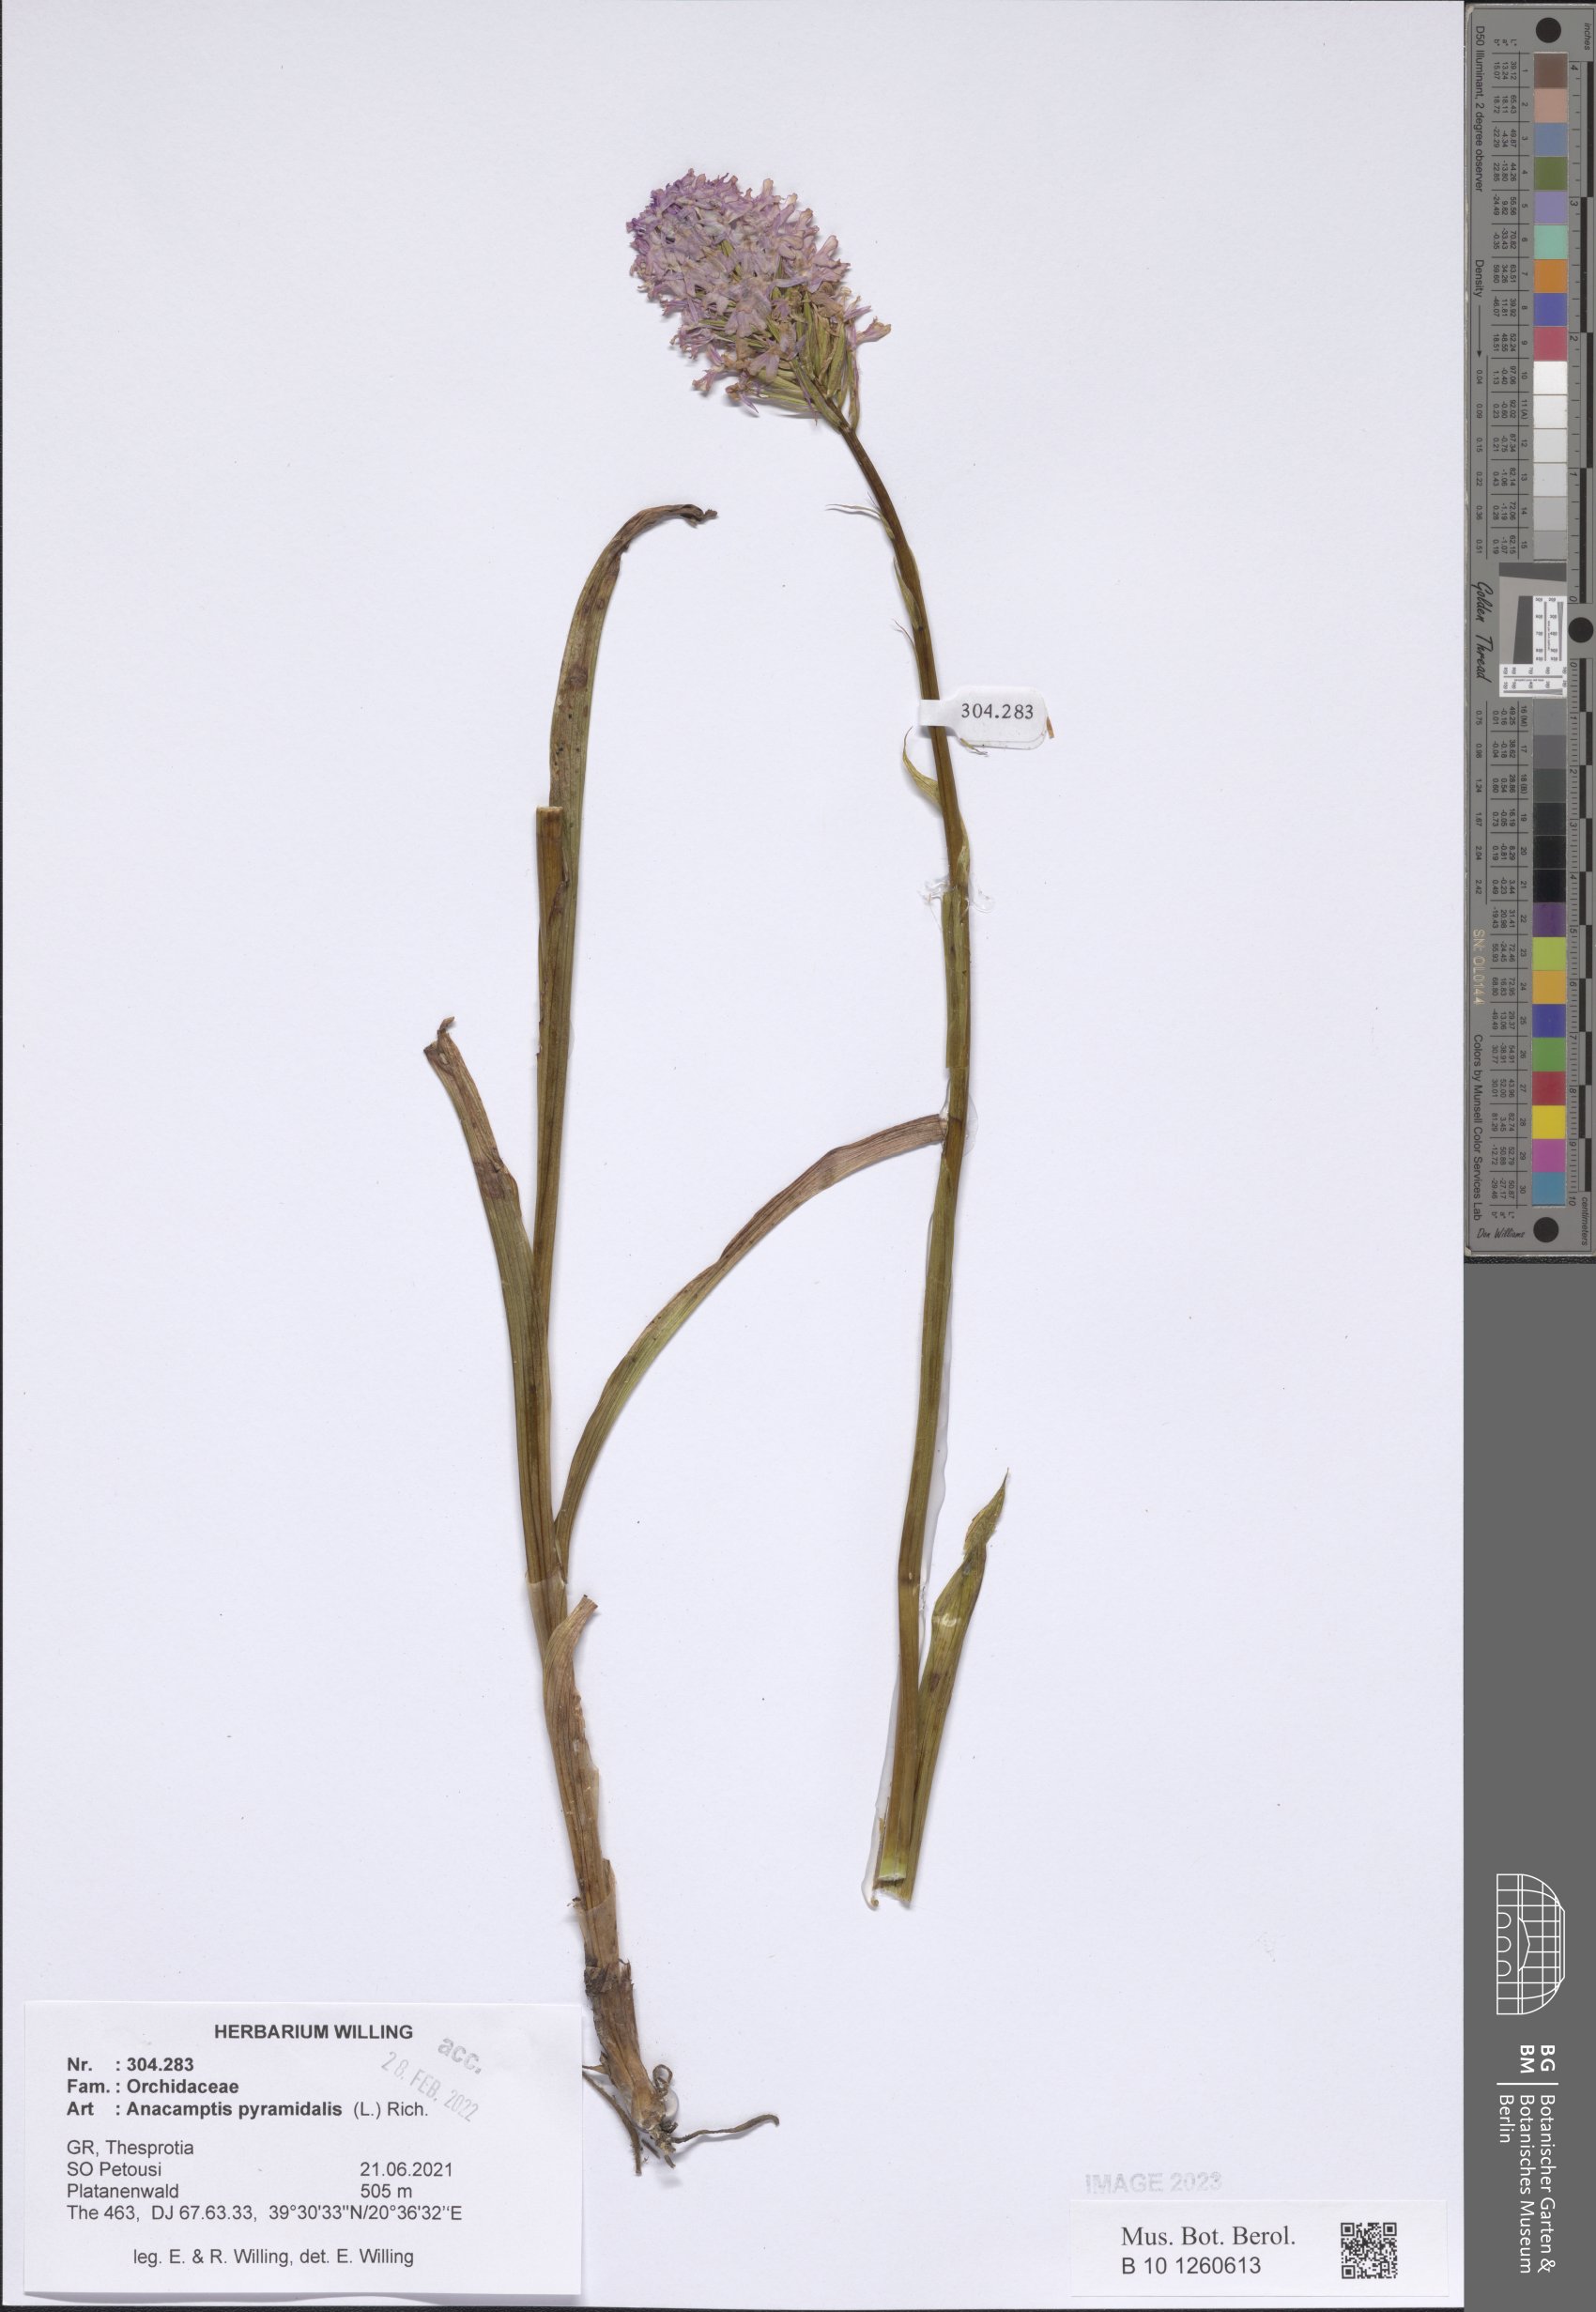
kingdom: Plantae
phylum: Tracheophyta
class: Liliopsida
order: Asparagales
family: Orchidaceae
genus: Anacamptis
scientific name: Anacamptis pyramidalis
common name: Pyramidal orchid
